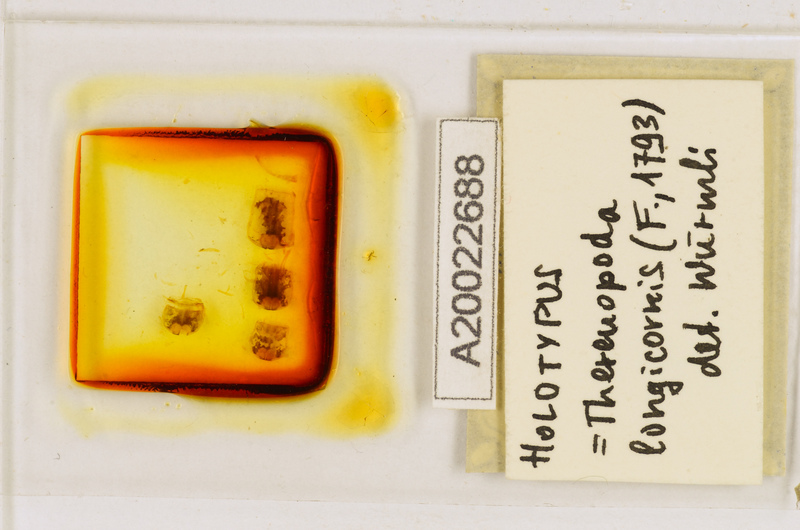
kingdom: Animalia
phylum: Arthropoda
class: Chilopoda
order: Scutigeromorpha
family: Scutigeridae
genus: Thereuopoda
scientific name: Thereuopoda longicornis
